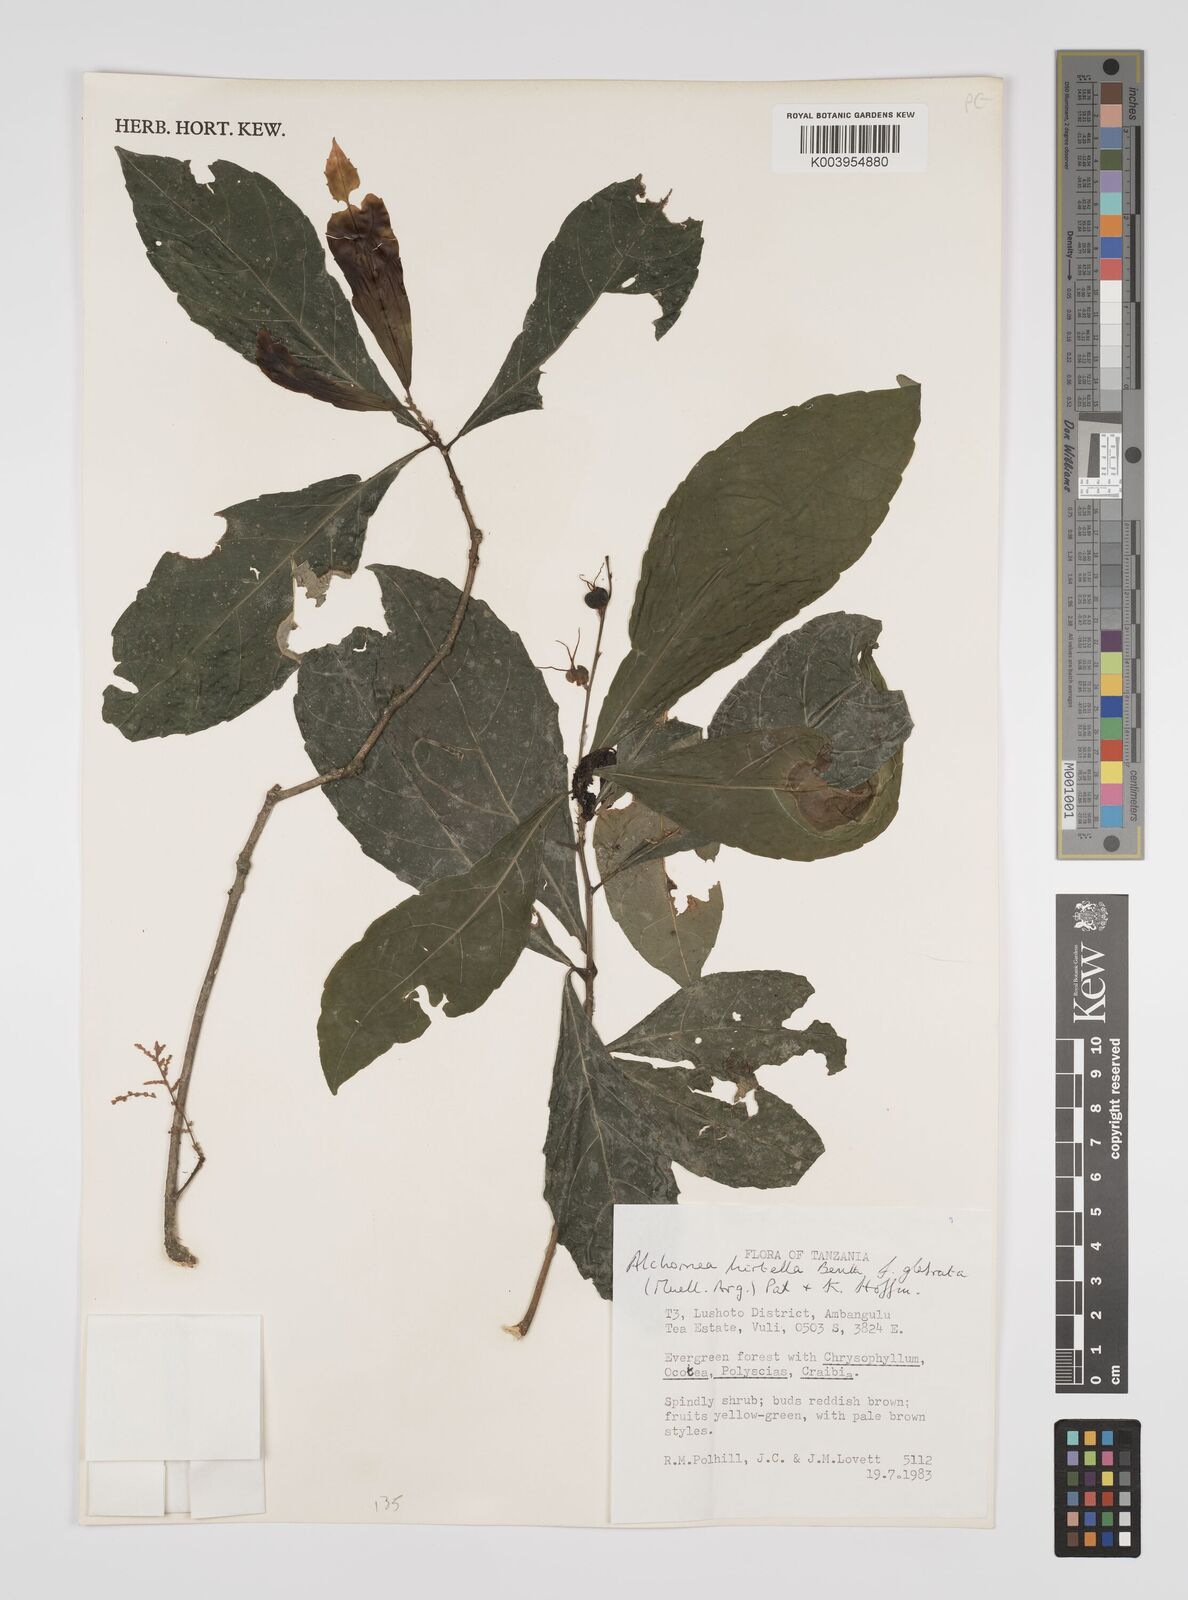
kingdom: Plantae
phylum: Tracheophyta
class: Magnoliopsida
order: Malpighiales
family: Euphorbiaceae
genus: Alchornea
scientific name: Alchornea hirtella
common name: Forest bead-string
